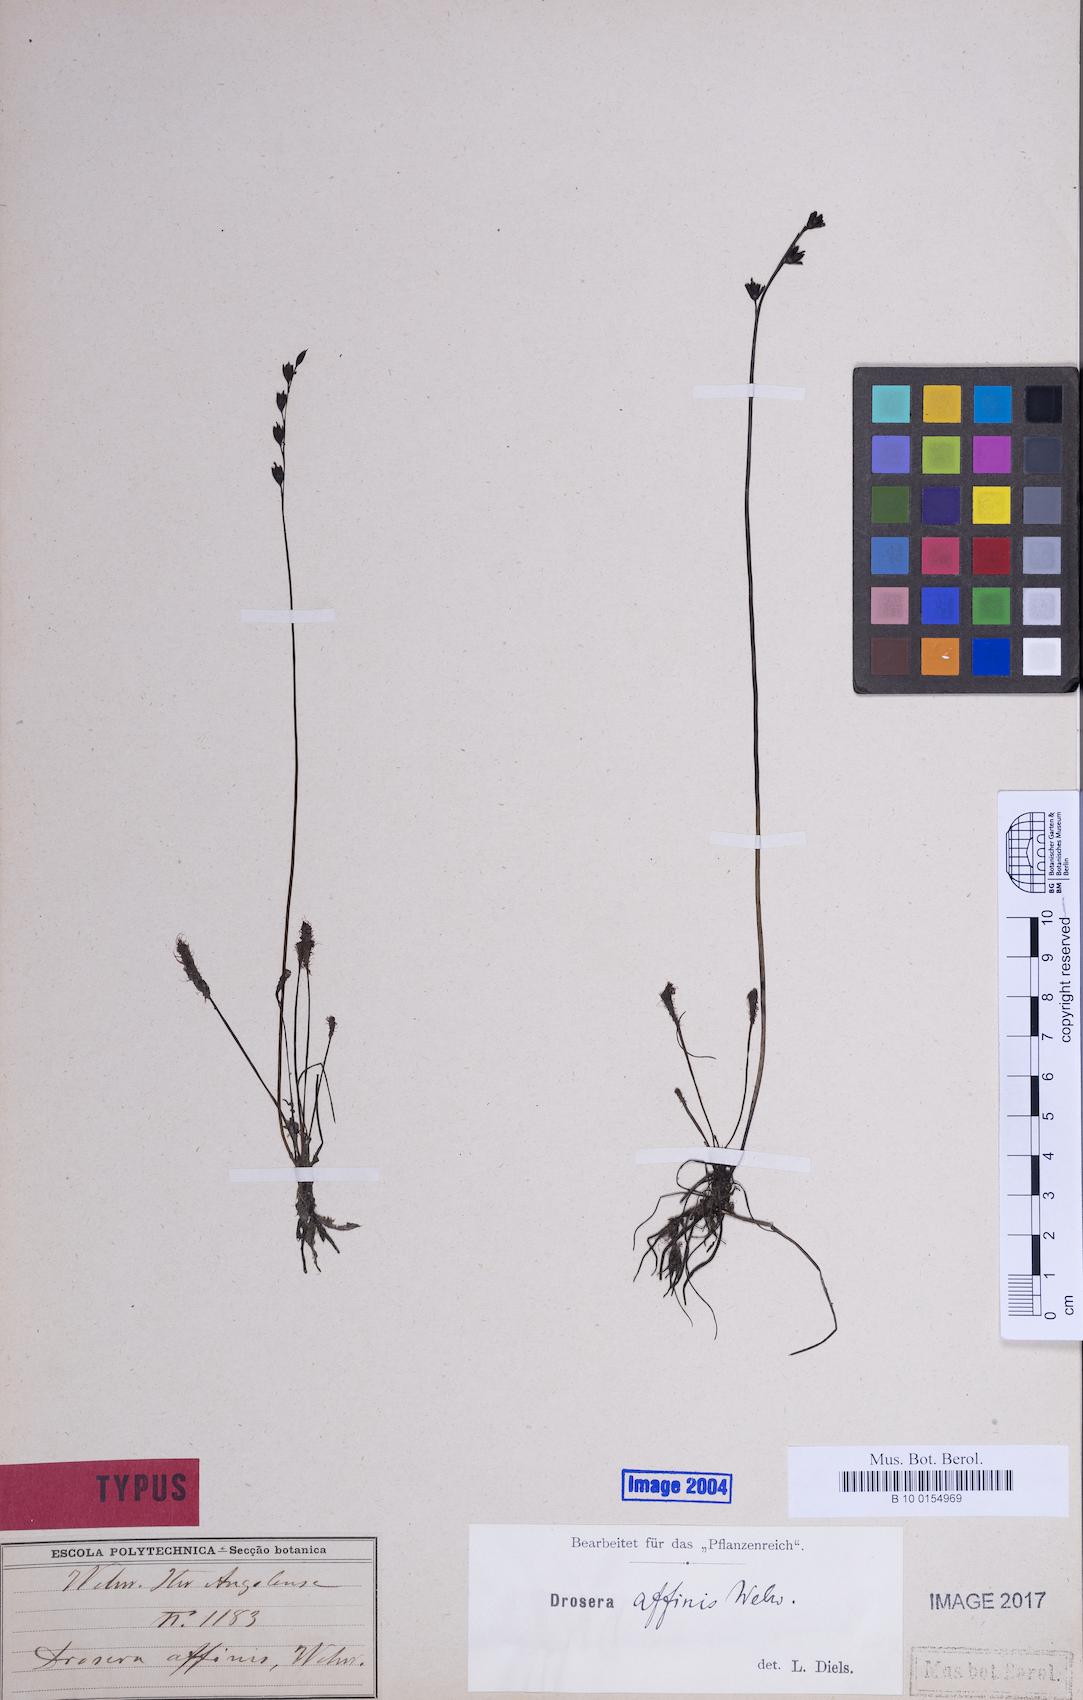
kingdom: Plantae
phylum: Tracheophyta
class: Magnoliopsida
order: Caryophyllales
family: Droseraceae
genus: Drosera
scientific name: Drosera affinis
